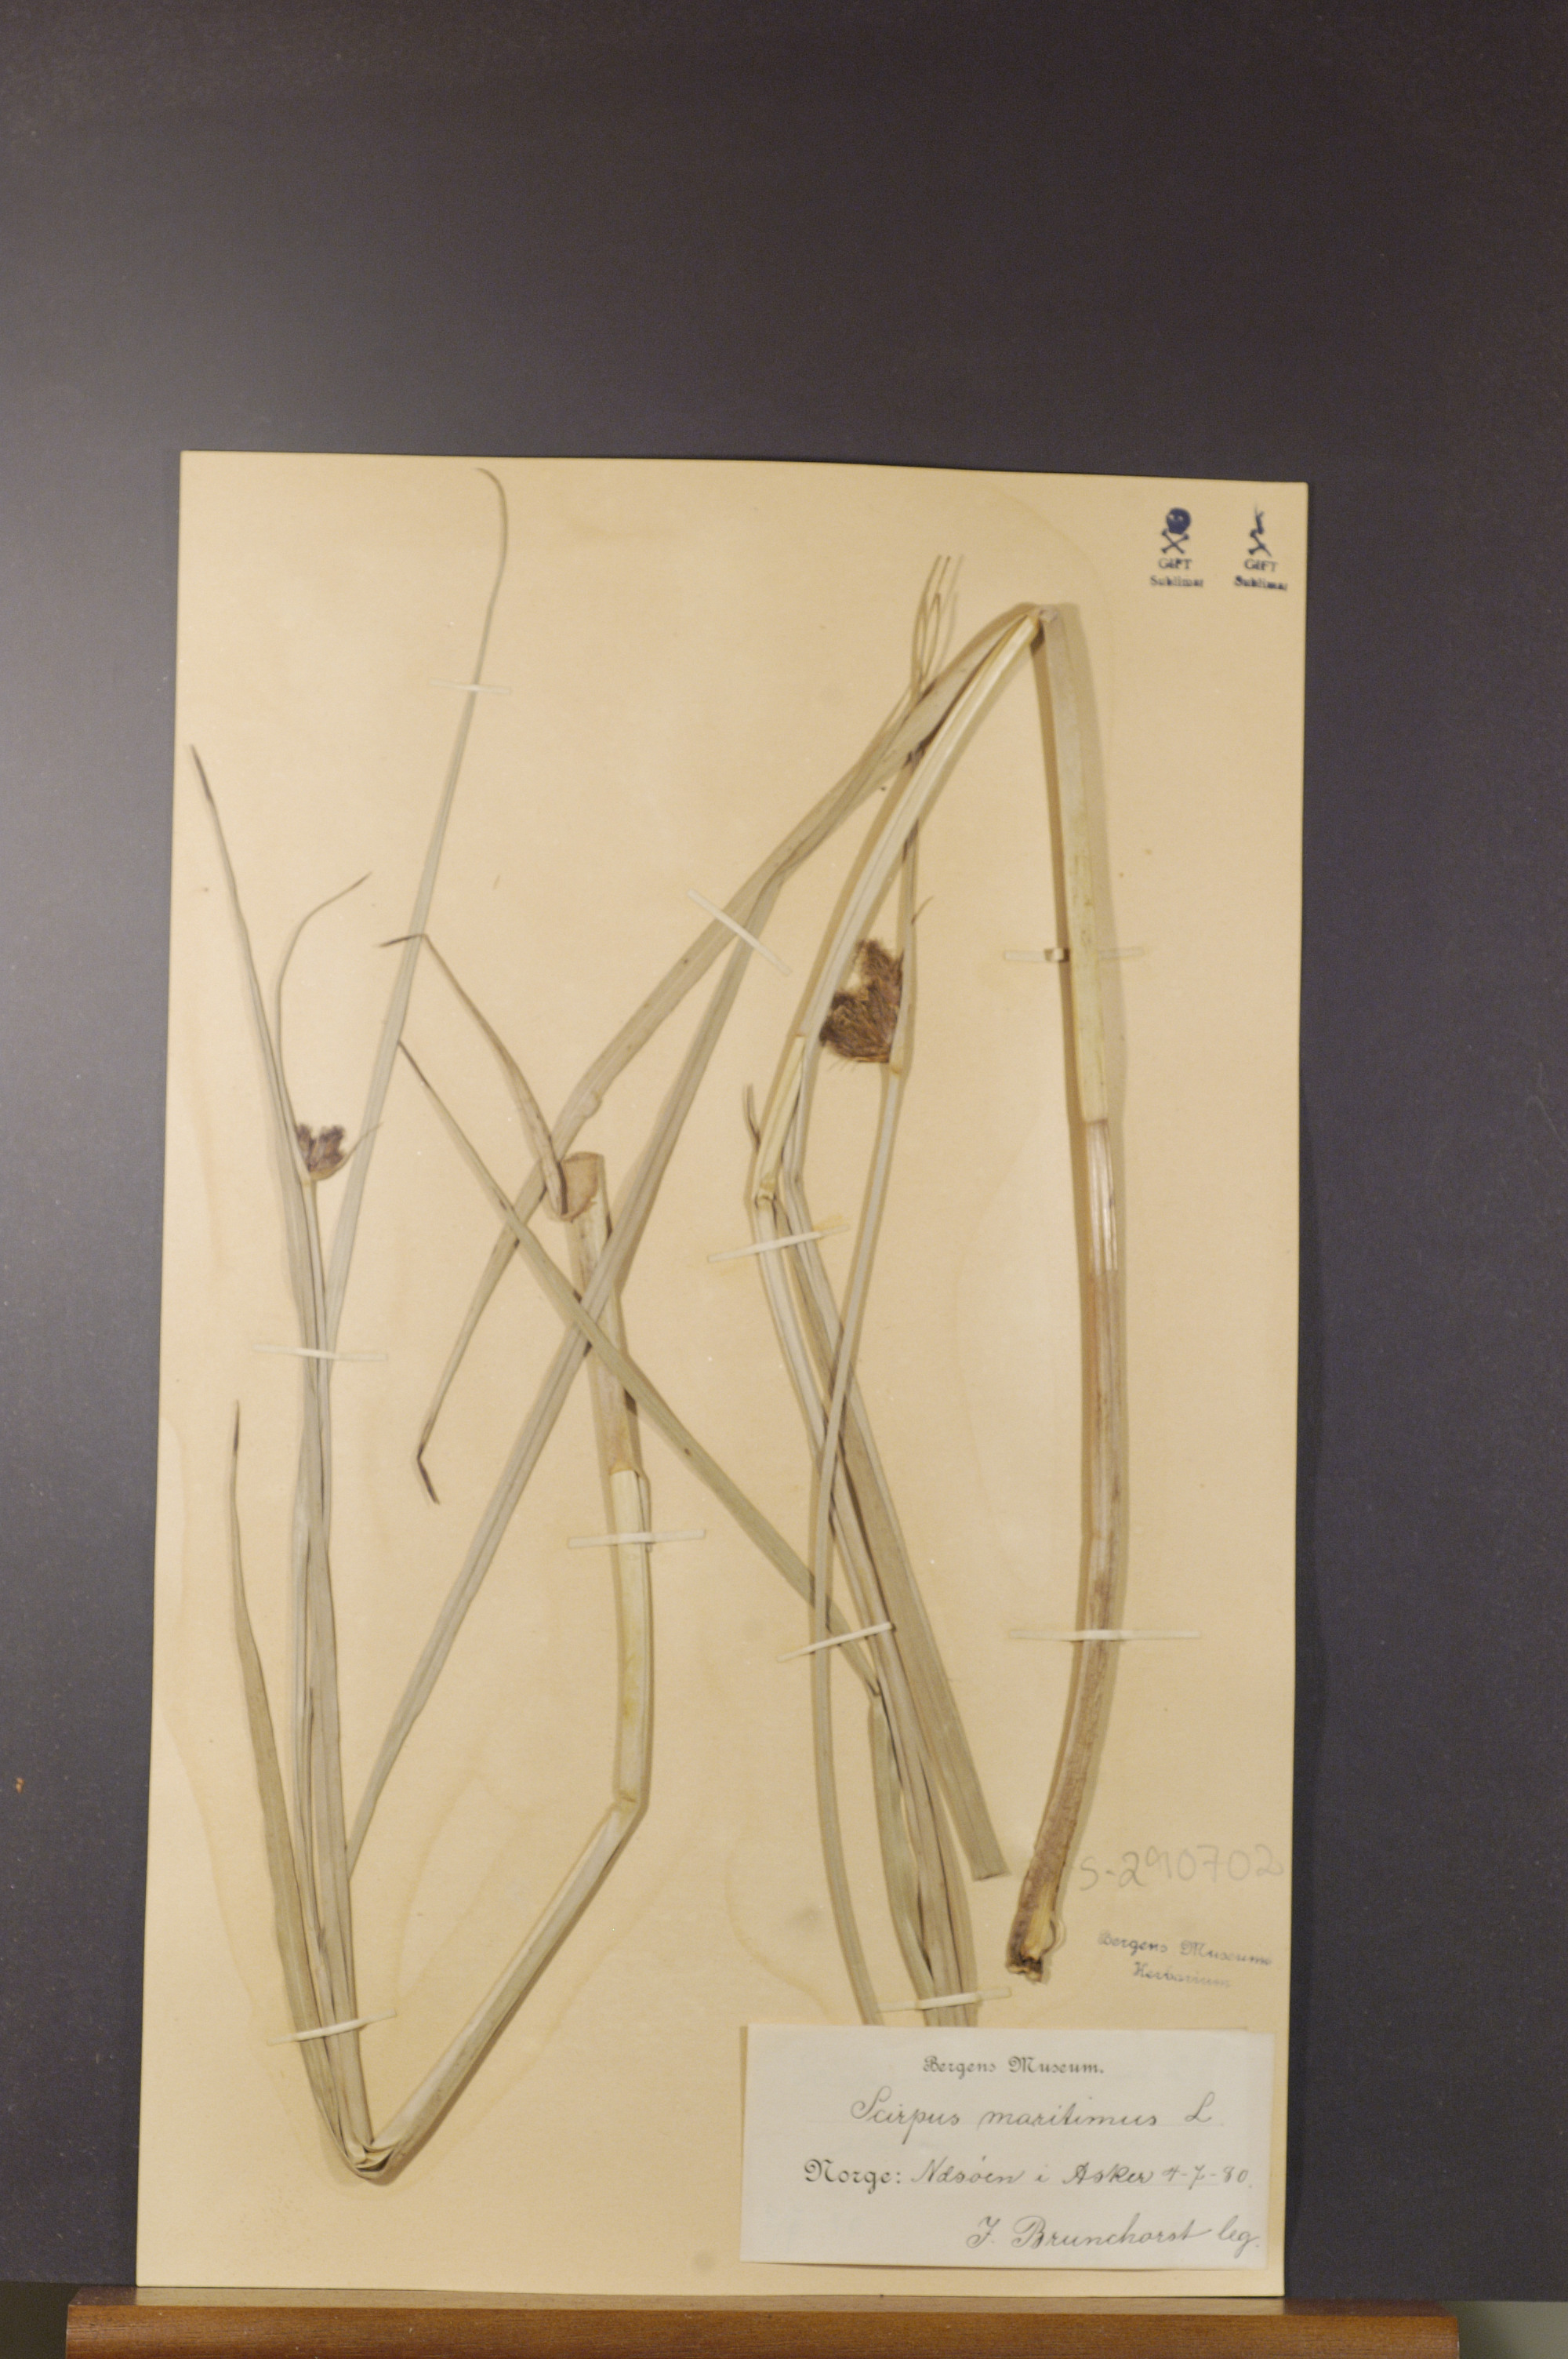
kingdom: Plantae
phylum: Tracheophyta
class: Liliopsida
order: Poales
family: Cyperaceae
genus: Bolboschoenus
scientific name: Bolboschoenus maritimus
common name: Sea club-rush
